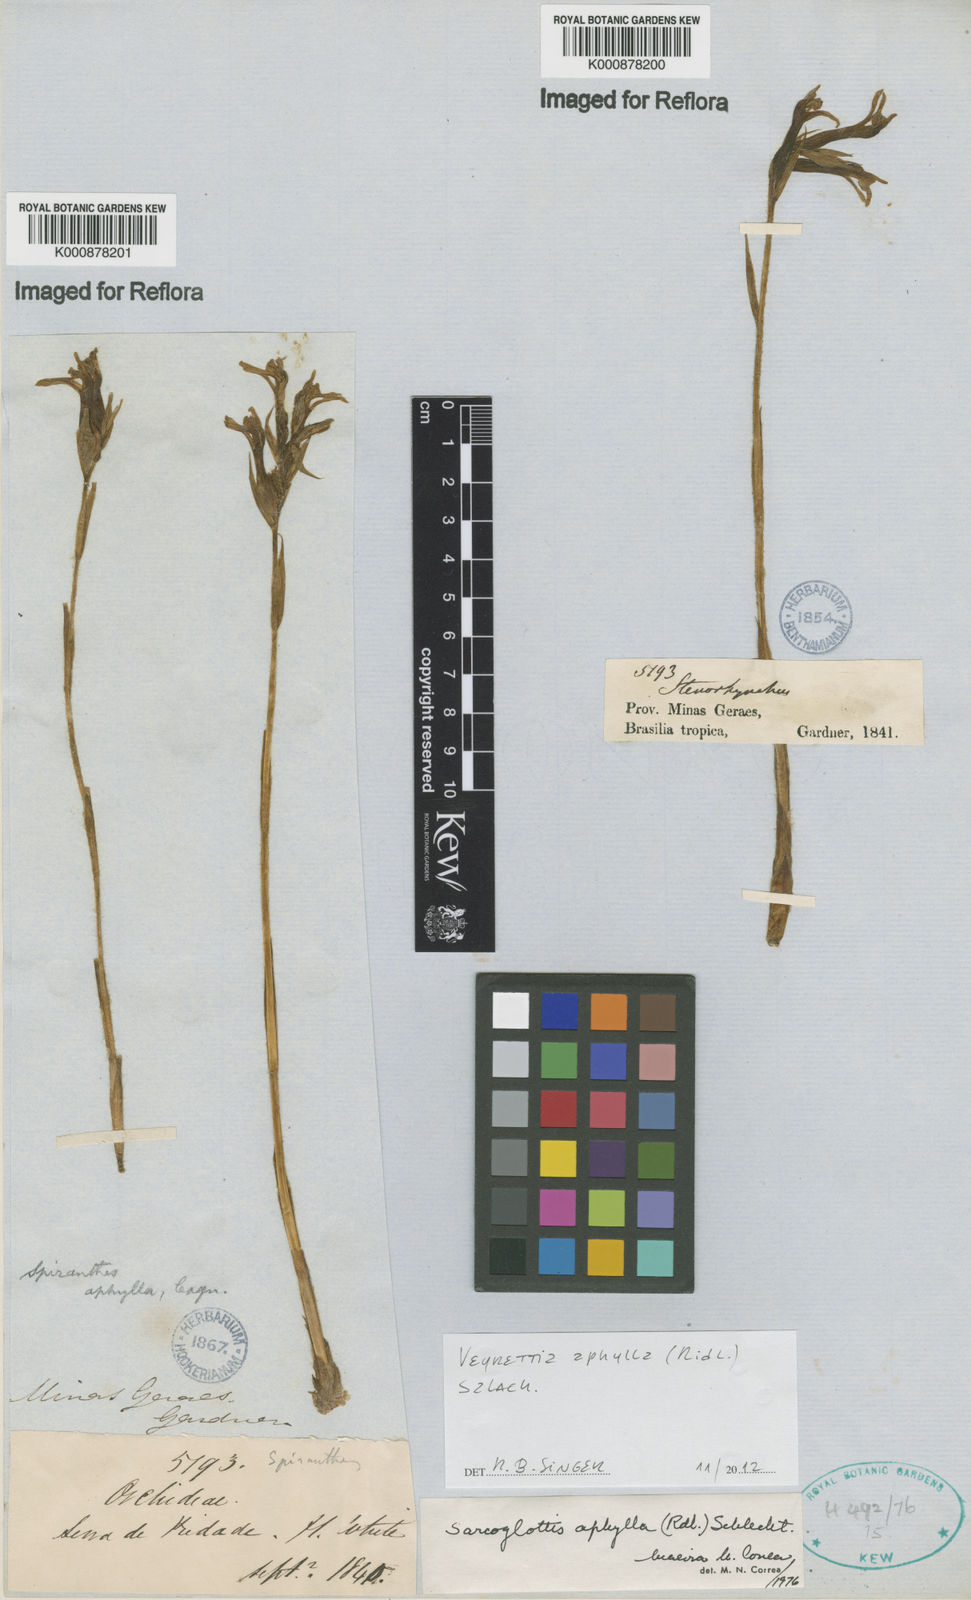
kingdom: Plantae
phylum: Tracheophyta
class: Liliopsida
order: Asparagales
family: Orchidaceae
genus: Veyretia
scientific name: Veyretia aphylla
